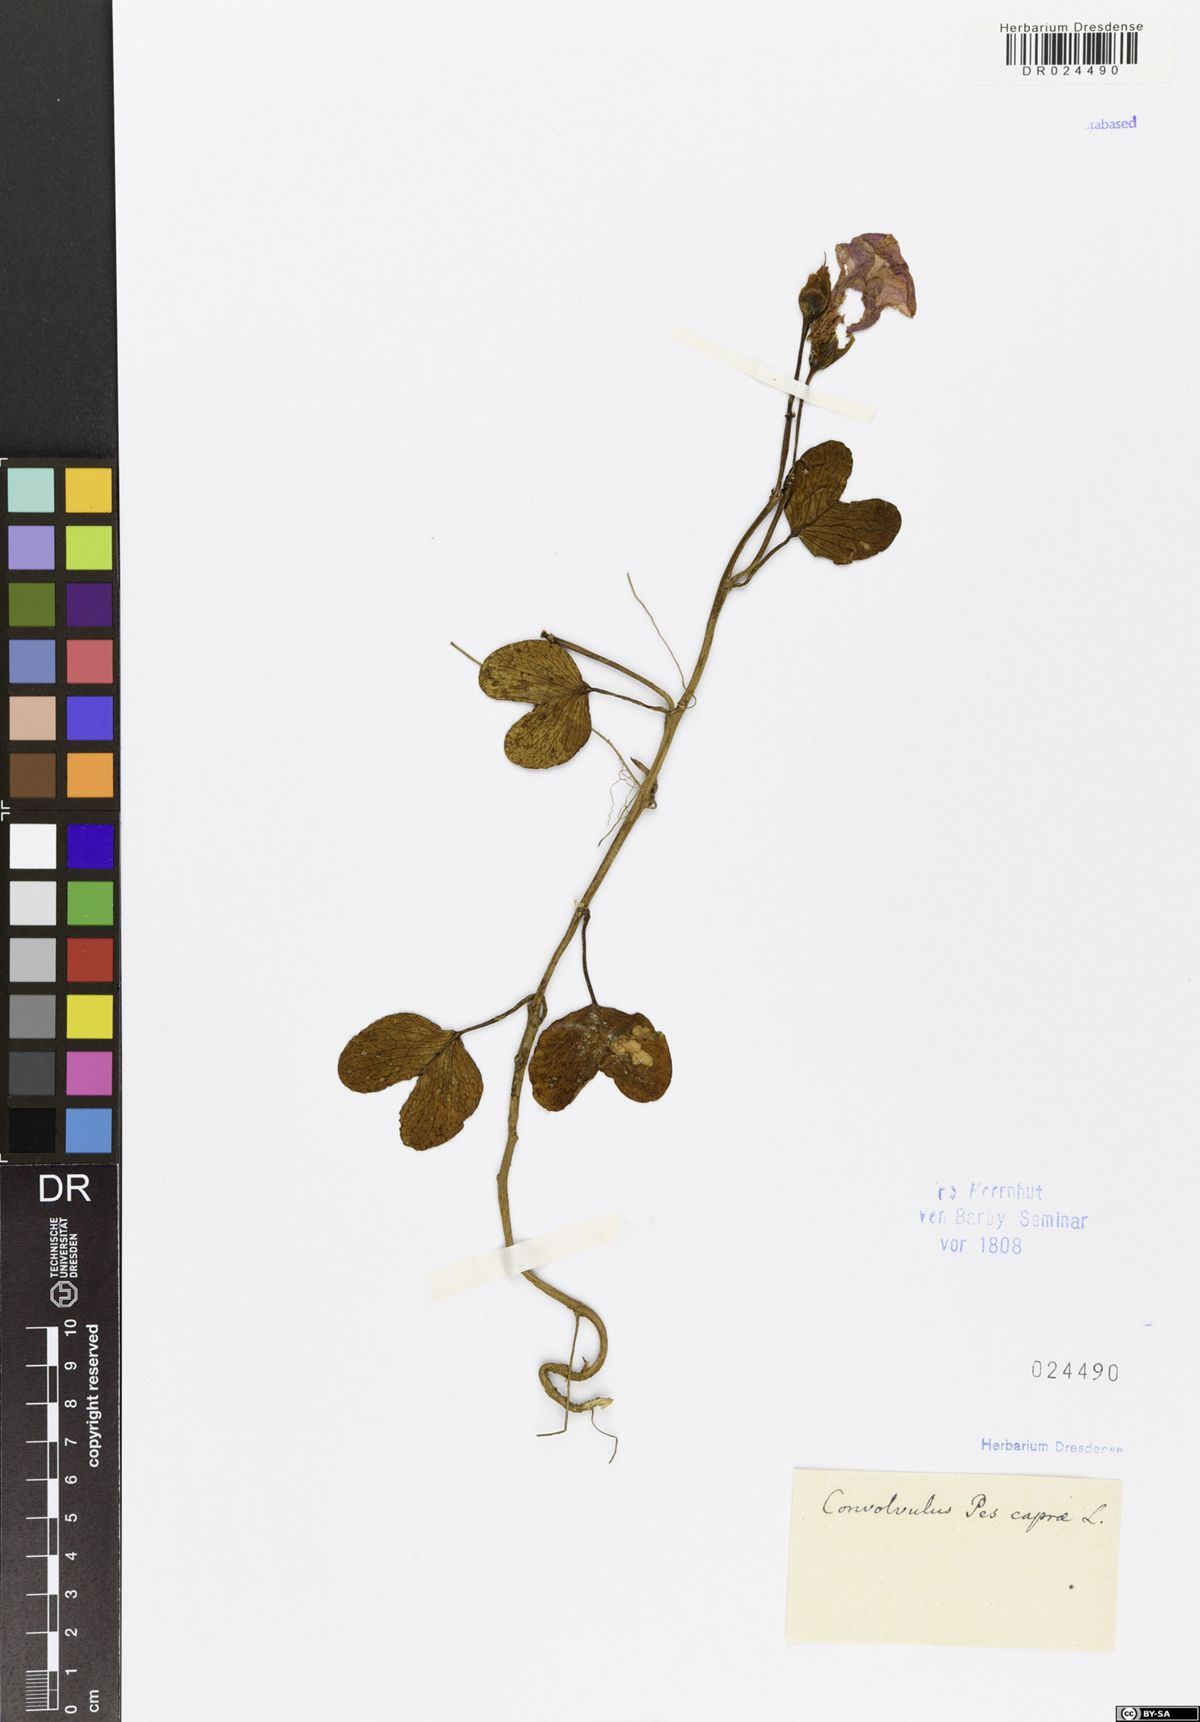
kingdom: Plantae
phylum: Tracheophyta
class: Magnoliopsida
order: Solanales
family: Convolvulaceae
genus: Ipomoea
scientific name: Ipomoea pes-caprae
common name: Beach morning glory
